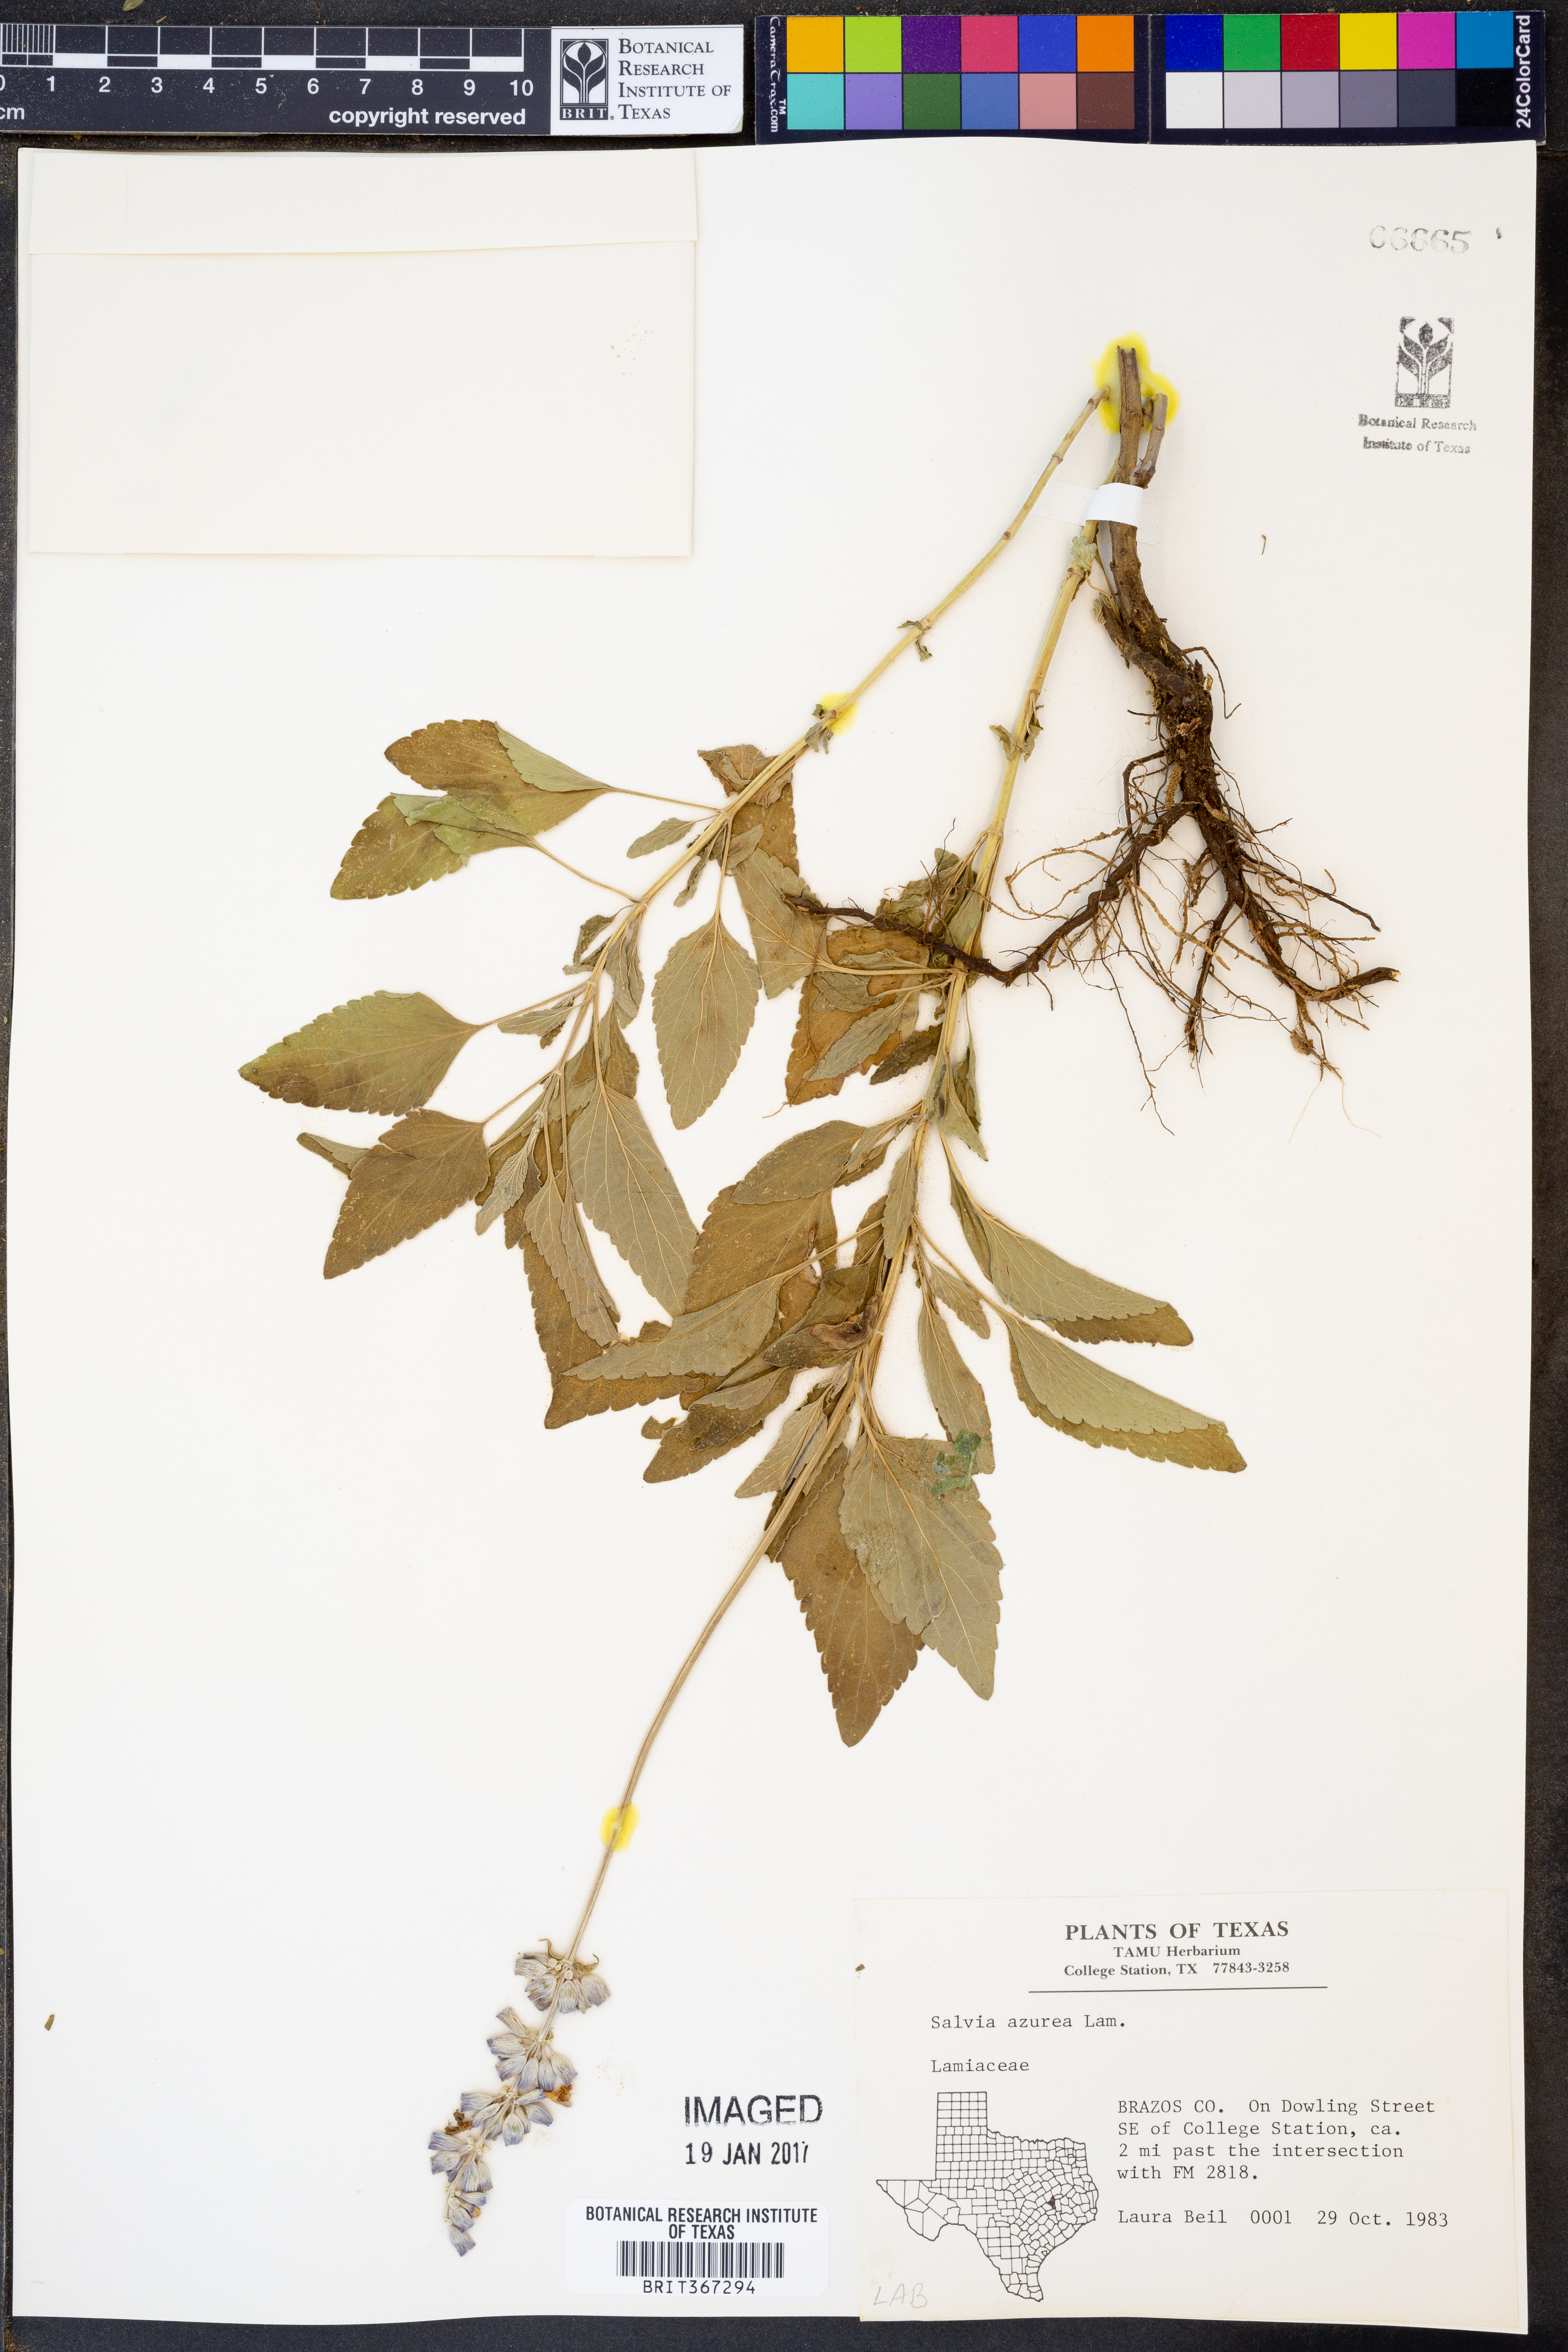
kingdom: Plantae
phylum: Tracheophyta
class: Magnoliopsida
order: Lamiales
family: Lamiaceae
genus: Salvia
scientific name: Salvia azurea
